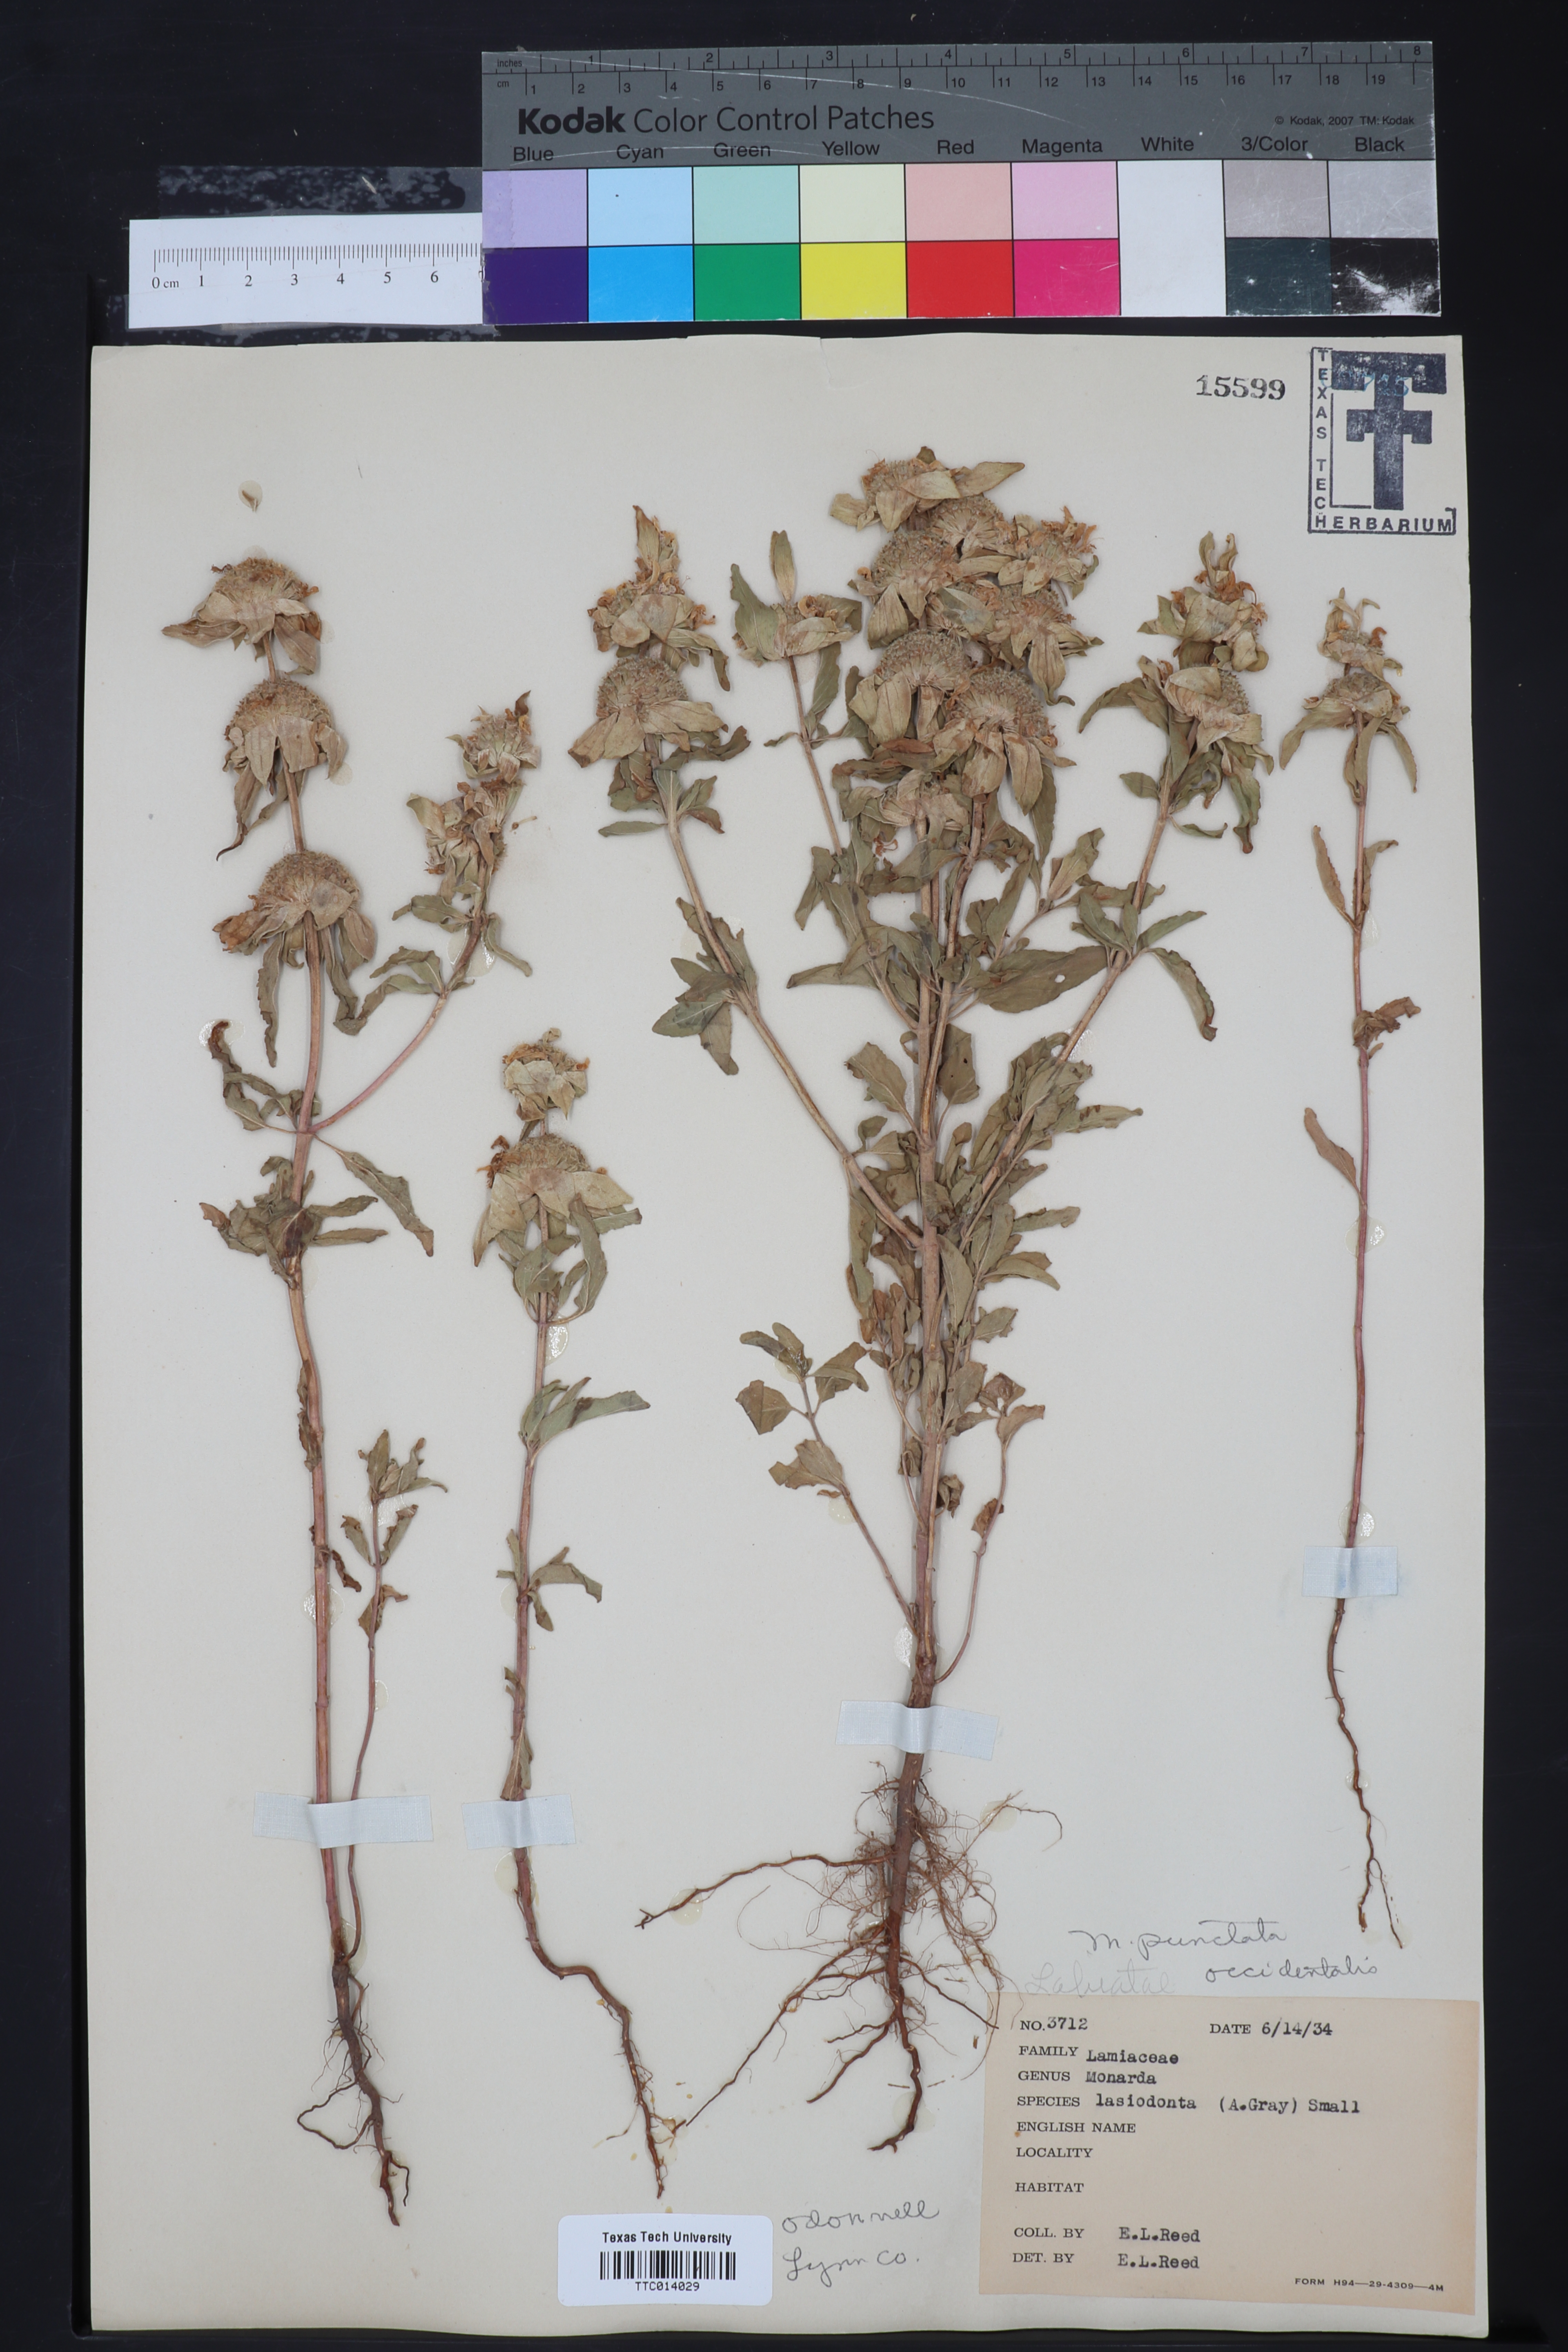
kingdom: Plantae
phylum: Tracheophyta
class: Magnoliopsida
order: Lamiales
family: Lamiaceae
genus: Monarda
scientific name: Monarda punctata
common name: Dotted monarda
